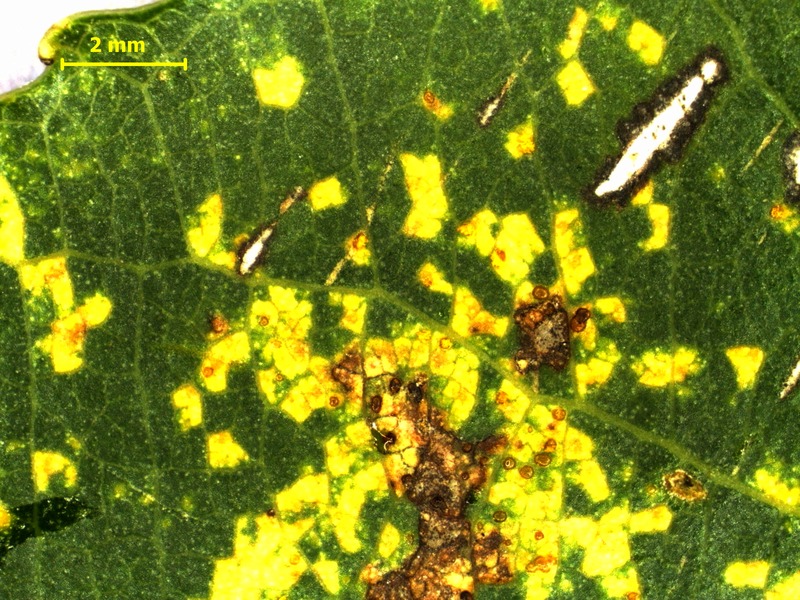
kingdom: Fungi
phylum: Basidiomycota
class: Pucciniomycetes
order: Pucciniales
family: Melampsoraceae
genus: Melampsora
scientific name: Melampsora laricis-populina
